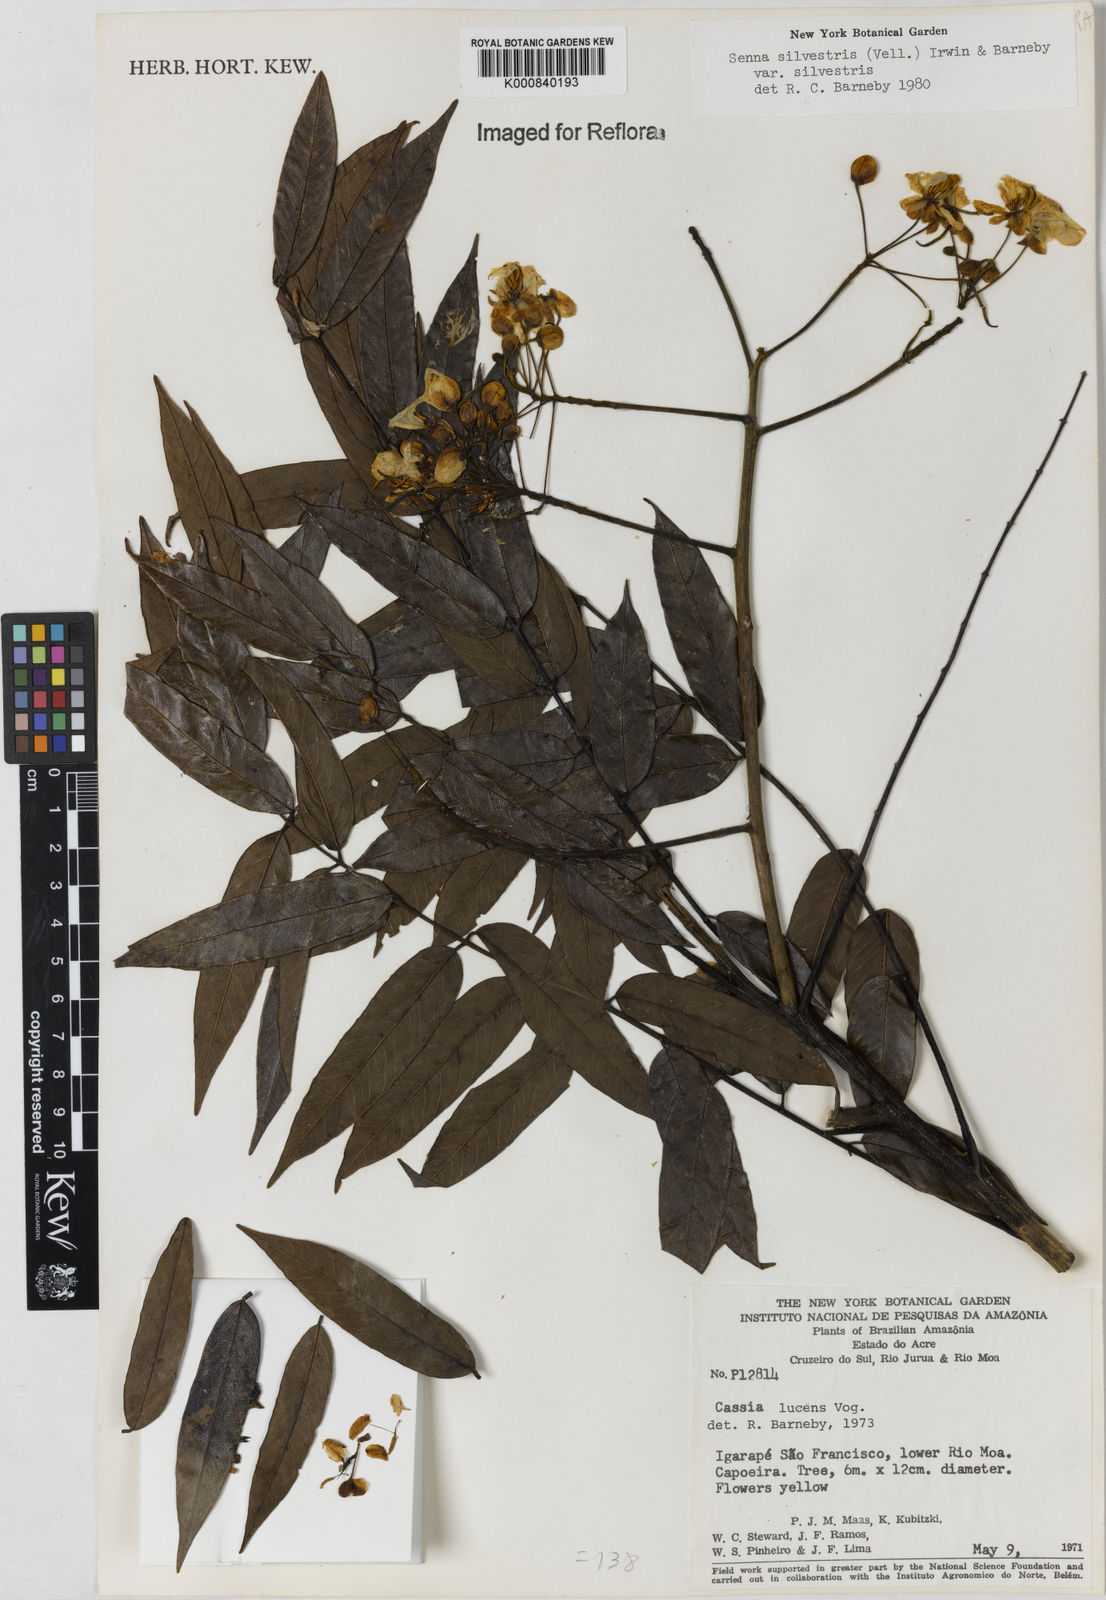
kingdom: Plantae
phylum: Tracheophyta
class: Magnoliopsida
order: Fabales
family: Fabaceae
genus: Senna
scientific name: Senna silvestris
